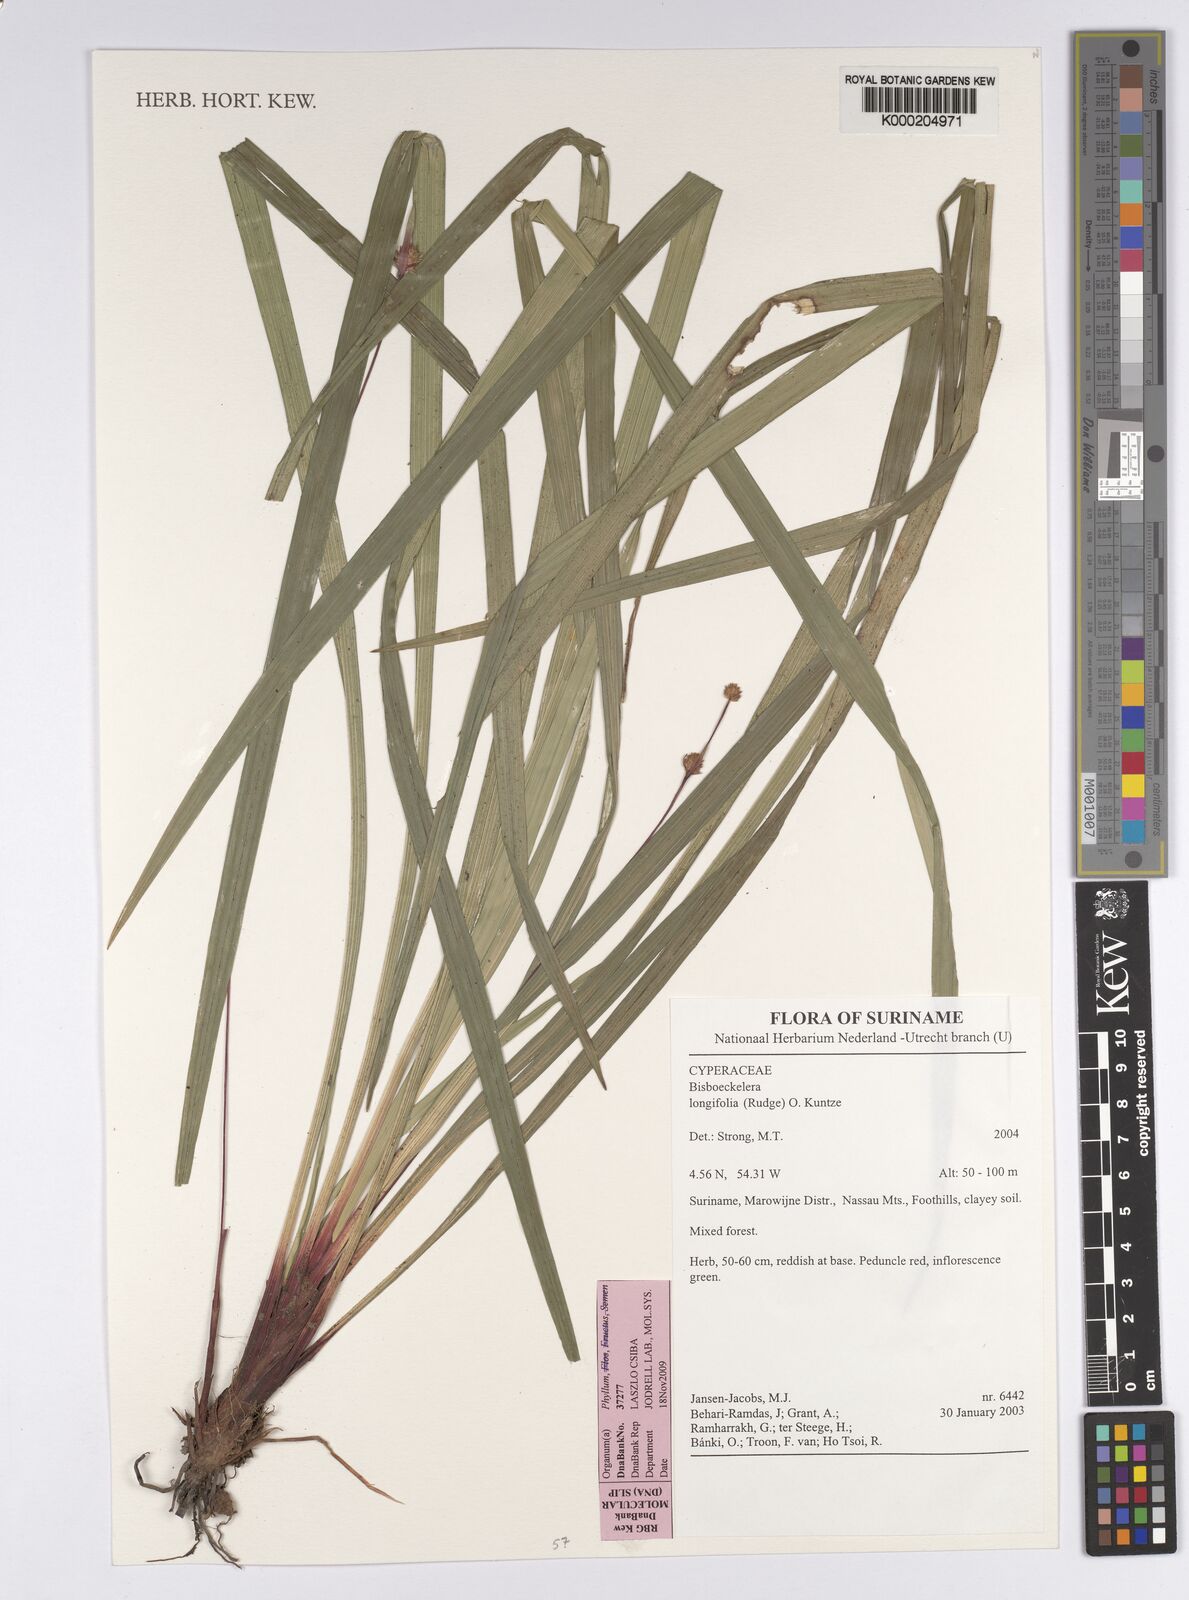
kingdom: Plantae
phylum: Tracheophyta
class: Liliopsida
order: Poales
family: Cyperaceae
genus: Bisboeckelera
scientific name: Bisboeckelera longifolia
